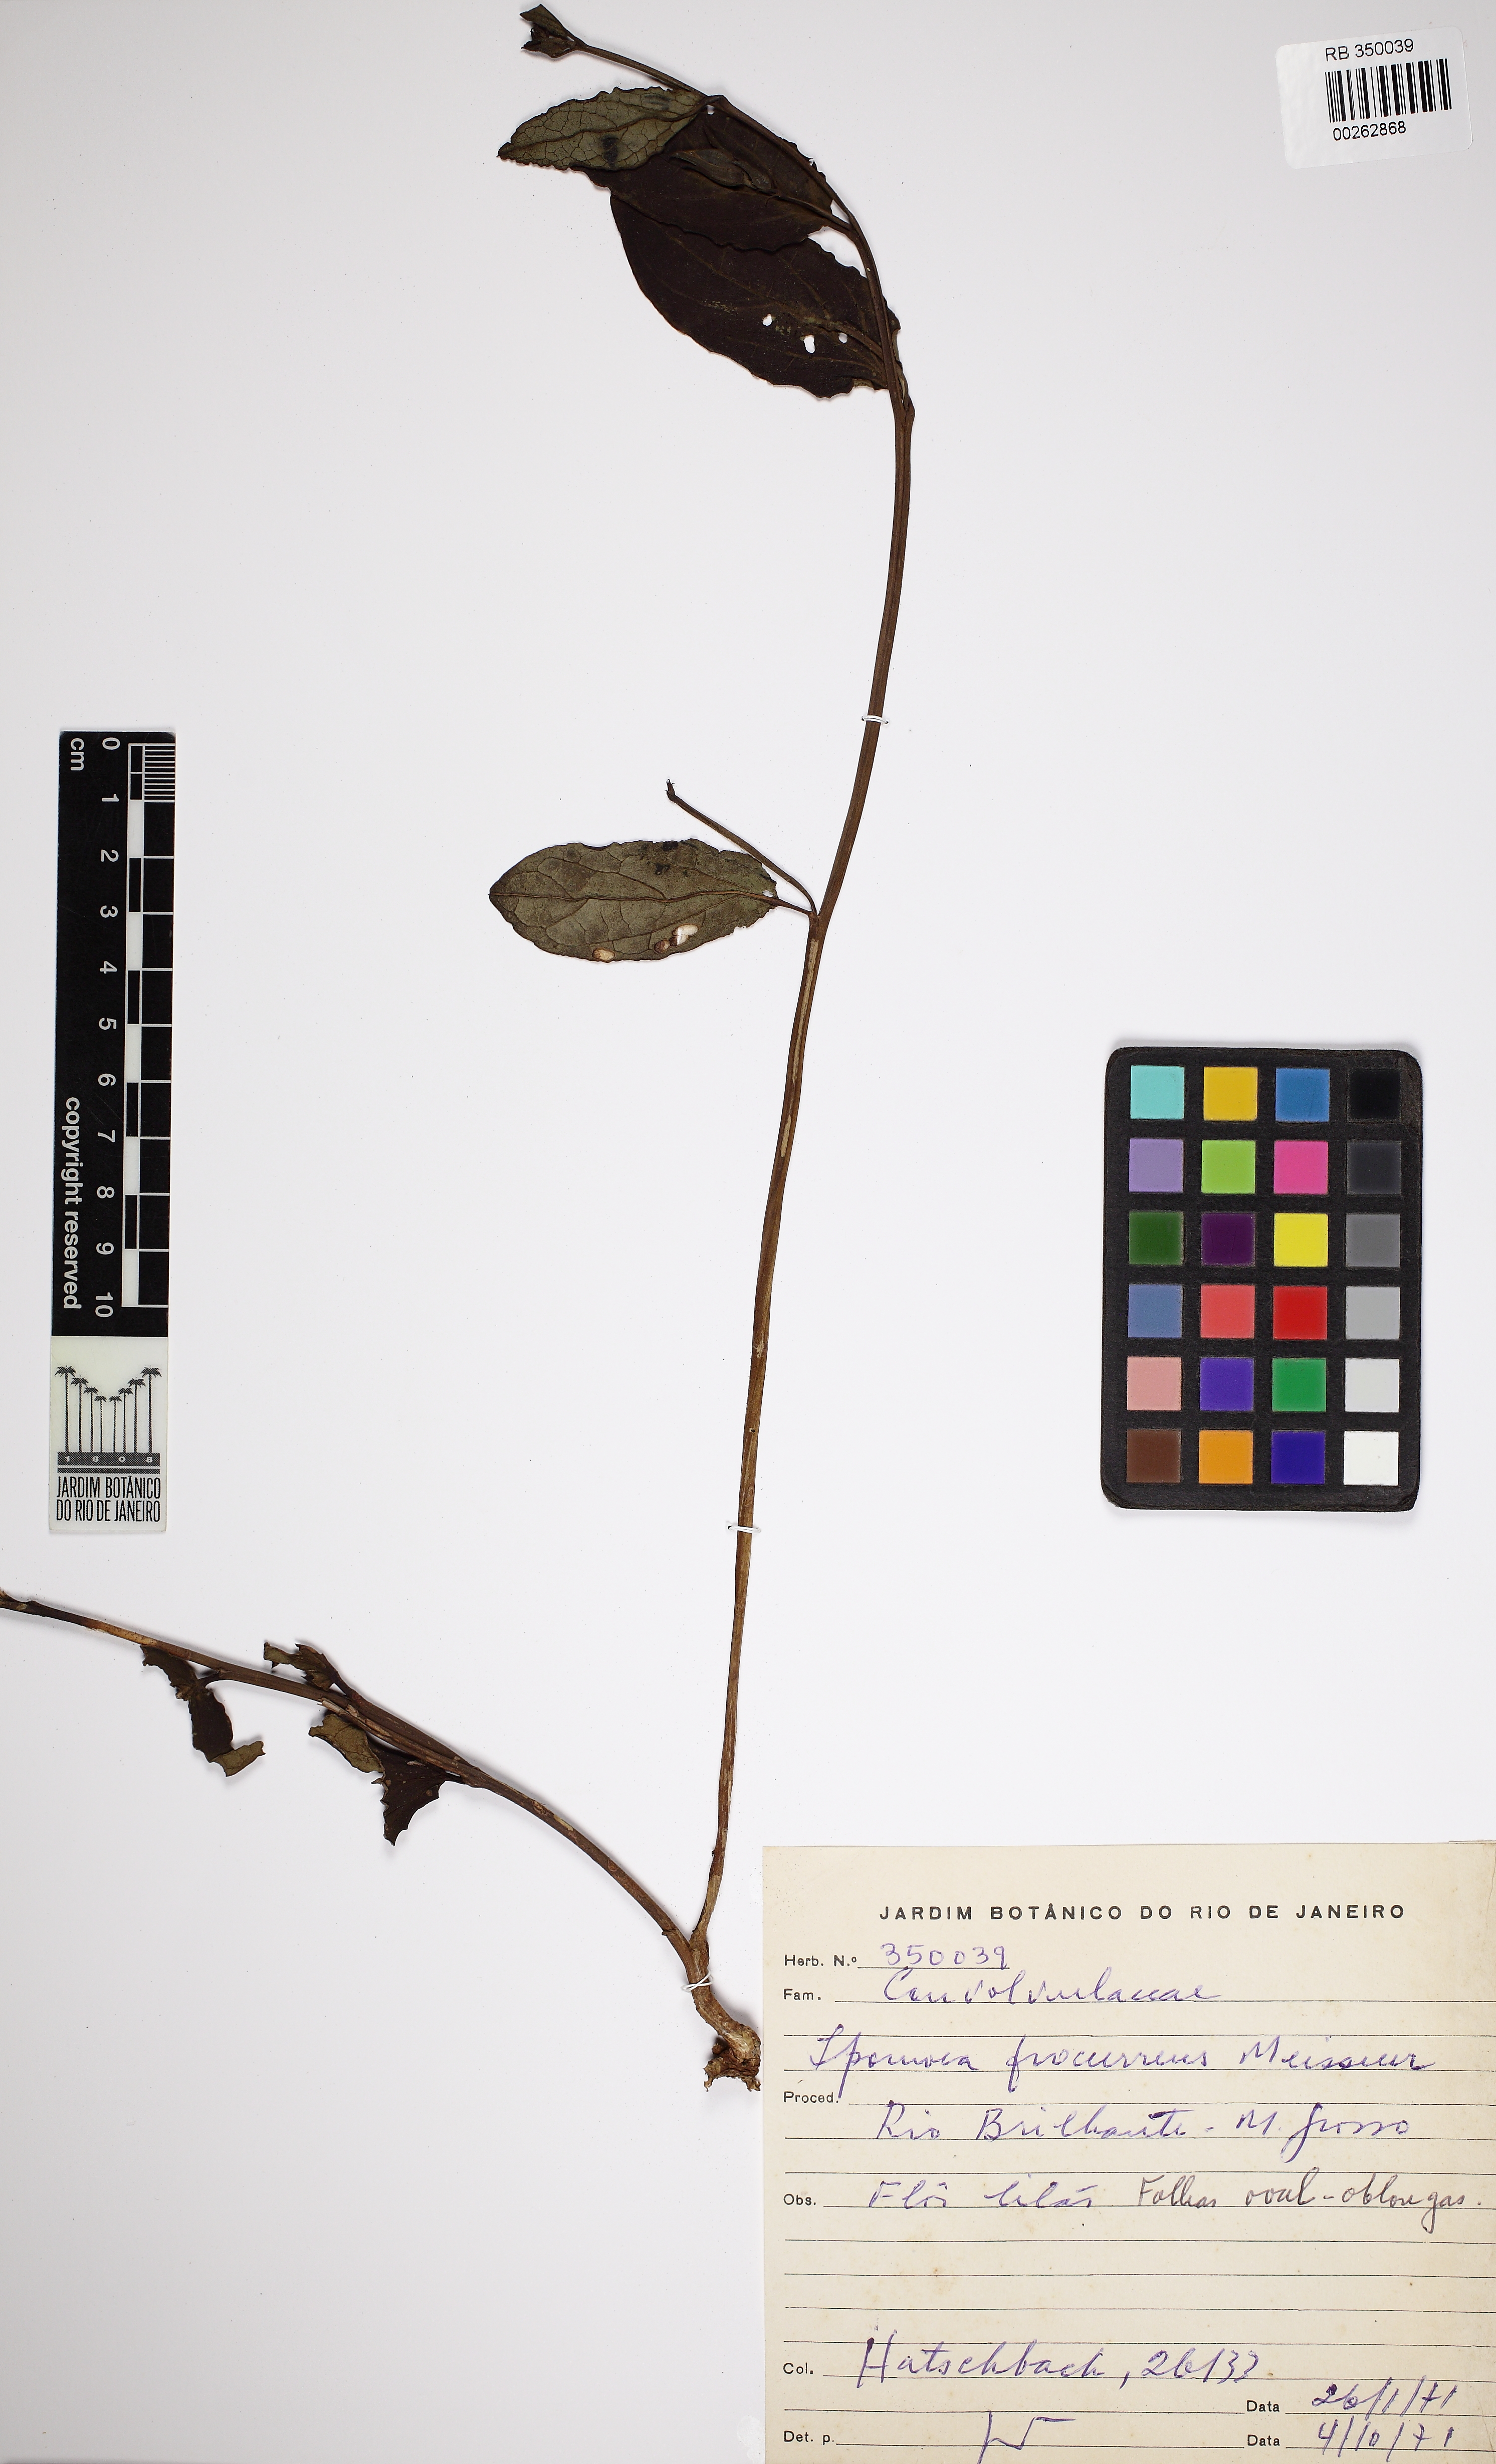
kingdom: Plantae
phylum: Tracheophyta
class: Magnoliopsida
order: Solanales
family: Convolvulaceae
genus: Ipomoea
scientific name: Ipomoea procurrens
